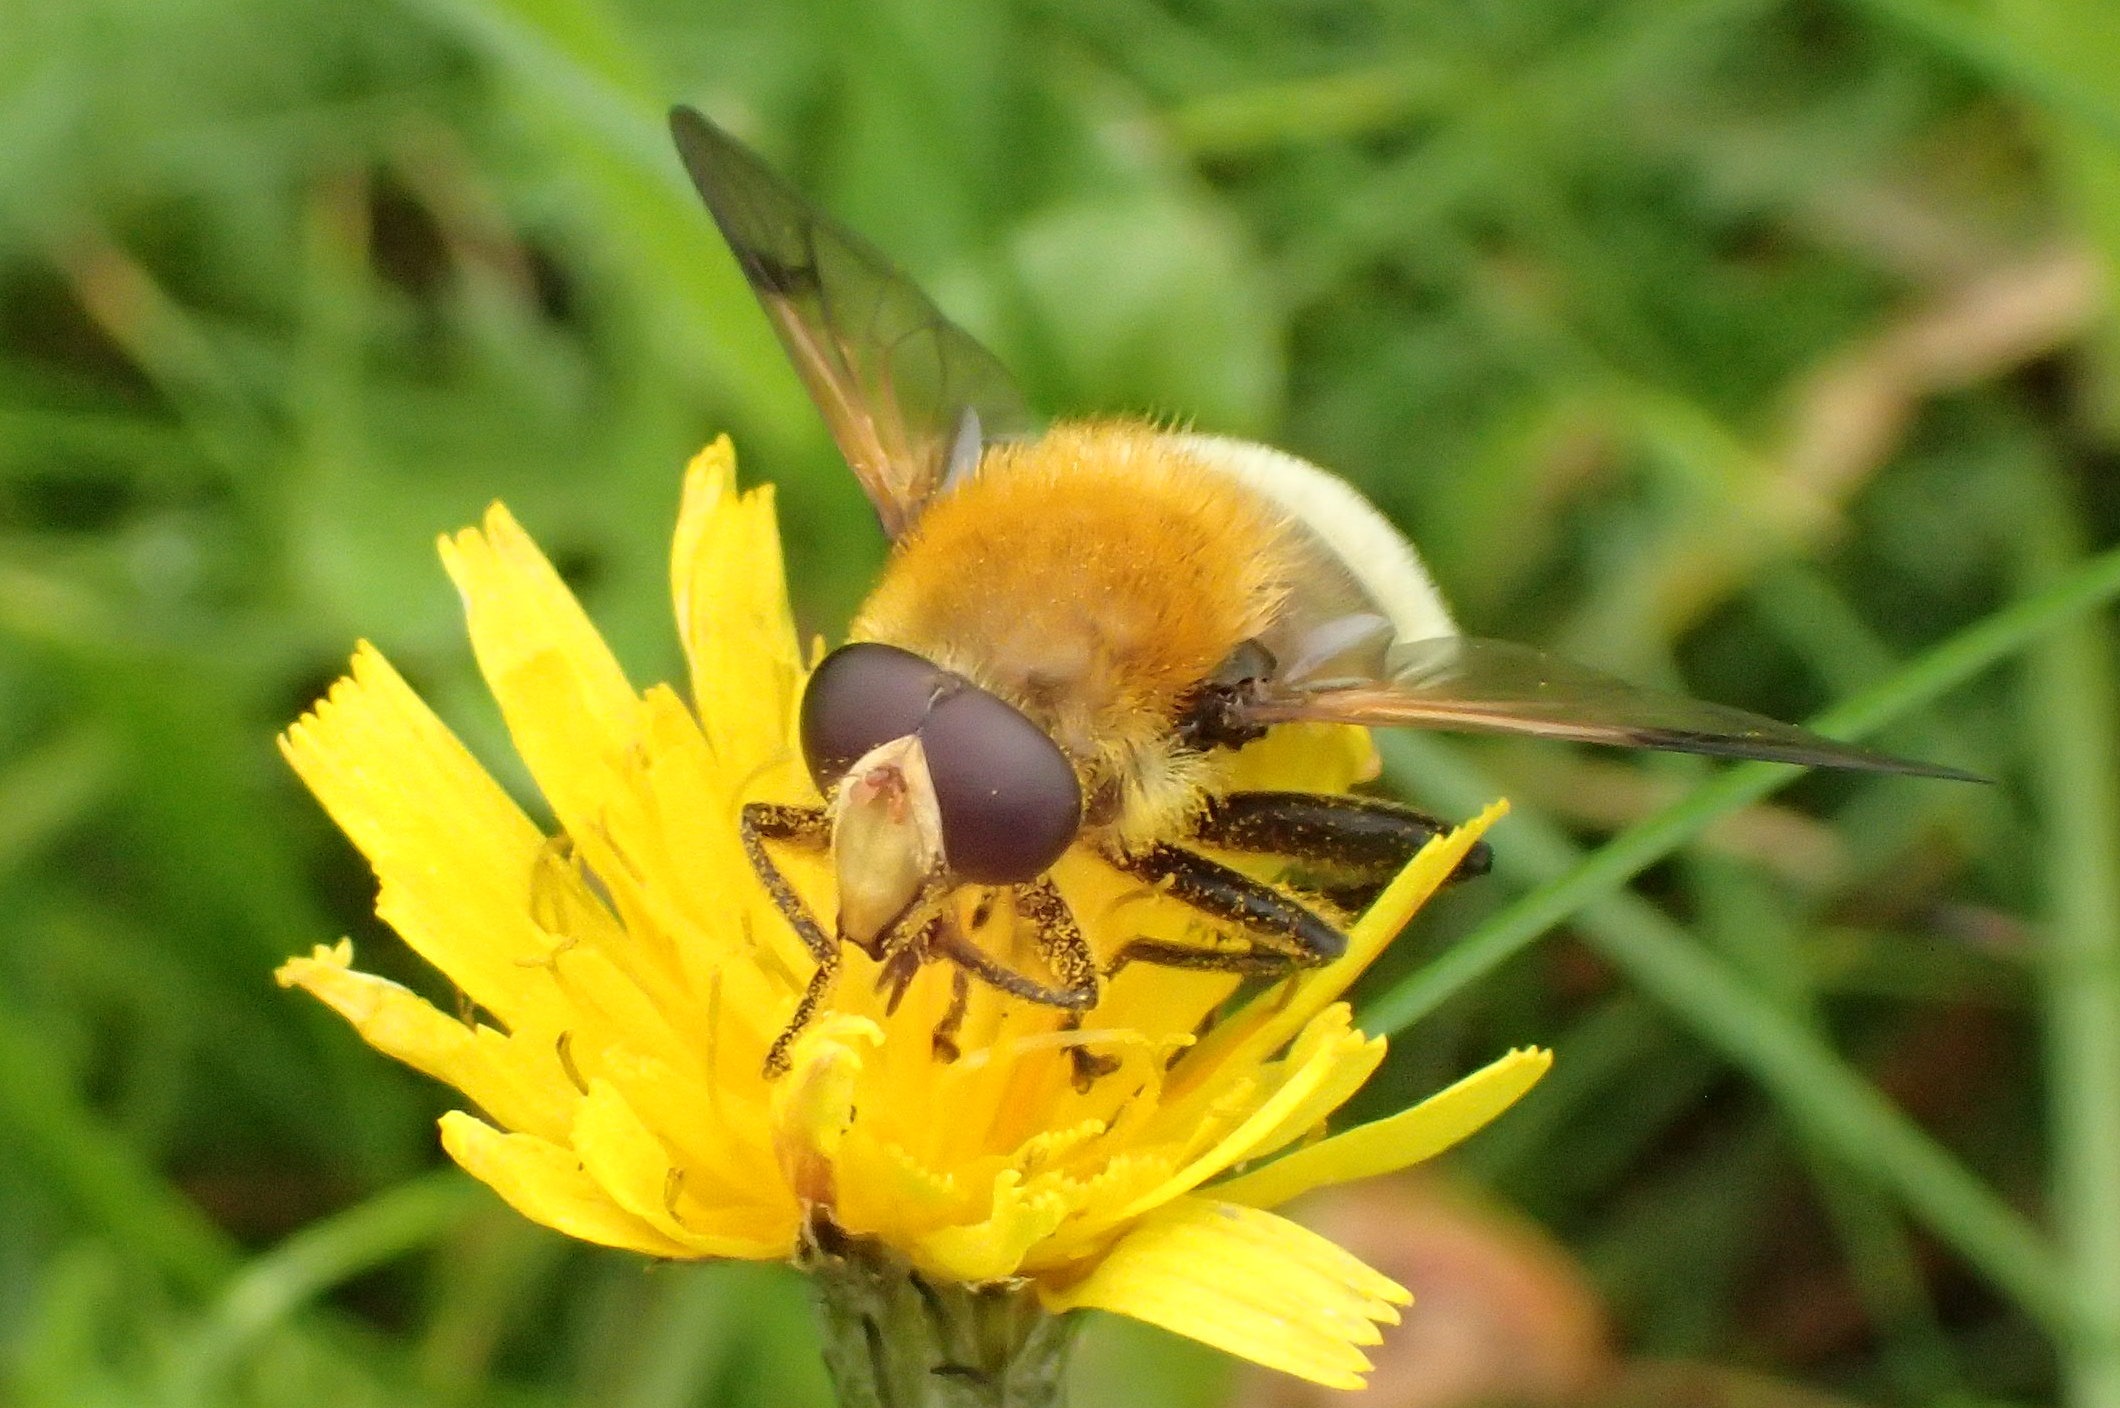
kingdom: Animalia
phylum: Arthropoda
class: Insecta
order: Diptera
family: Syrphidae
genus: Sericomyia
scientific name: Sericomyia superbiens
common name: Brun bjørnesvirreflue
